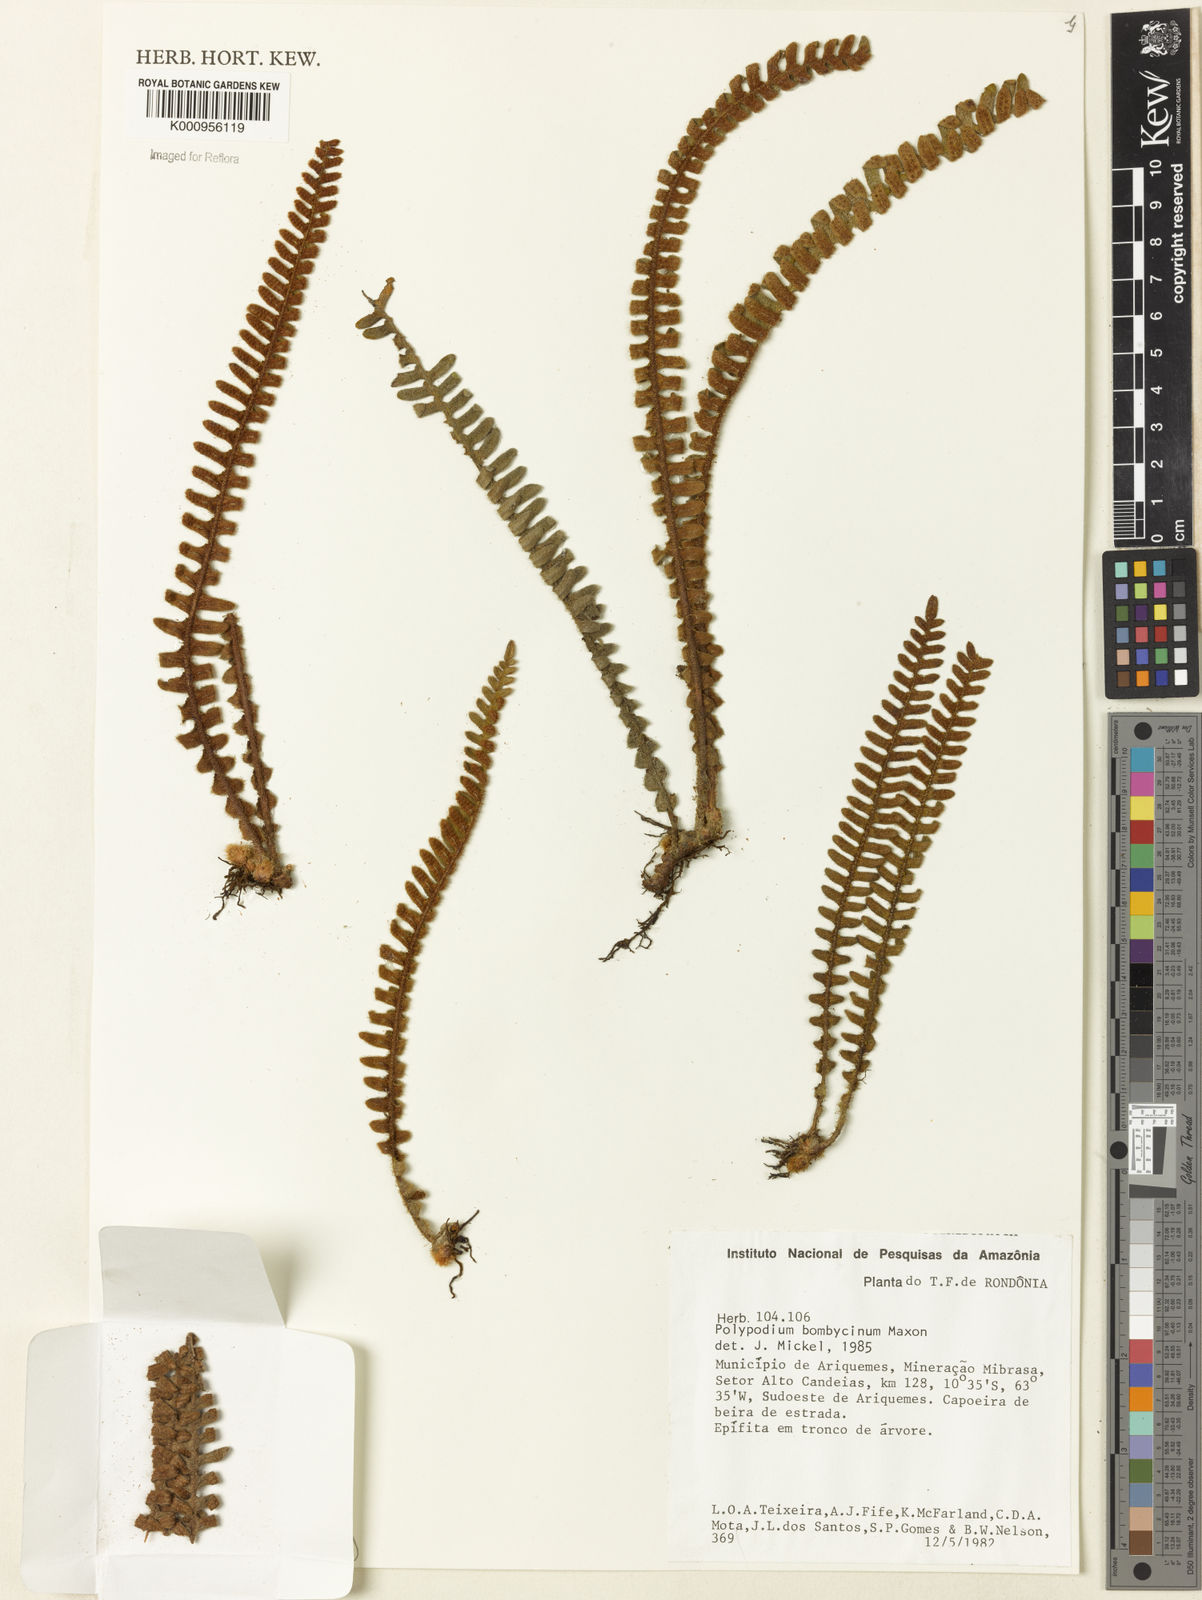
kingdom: Plantae
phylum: Tracheophyta
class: Polypodiopsida
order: Polypodiales
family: Polypodiaceae
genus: Pleopeltis
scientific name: Pleopeltis bombycina
